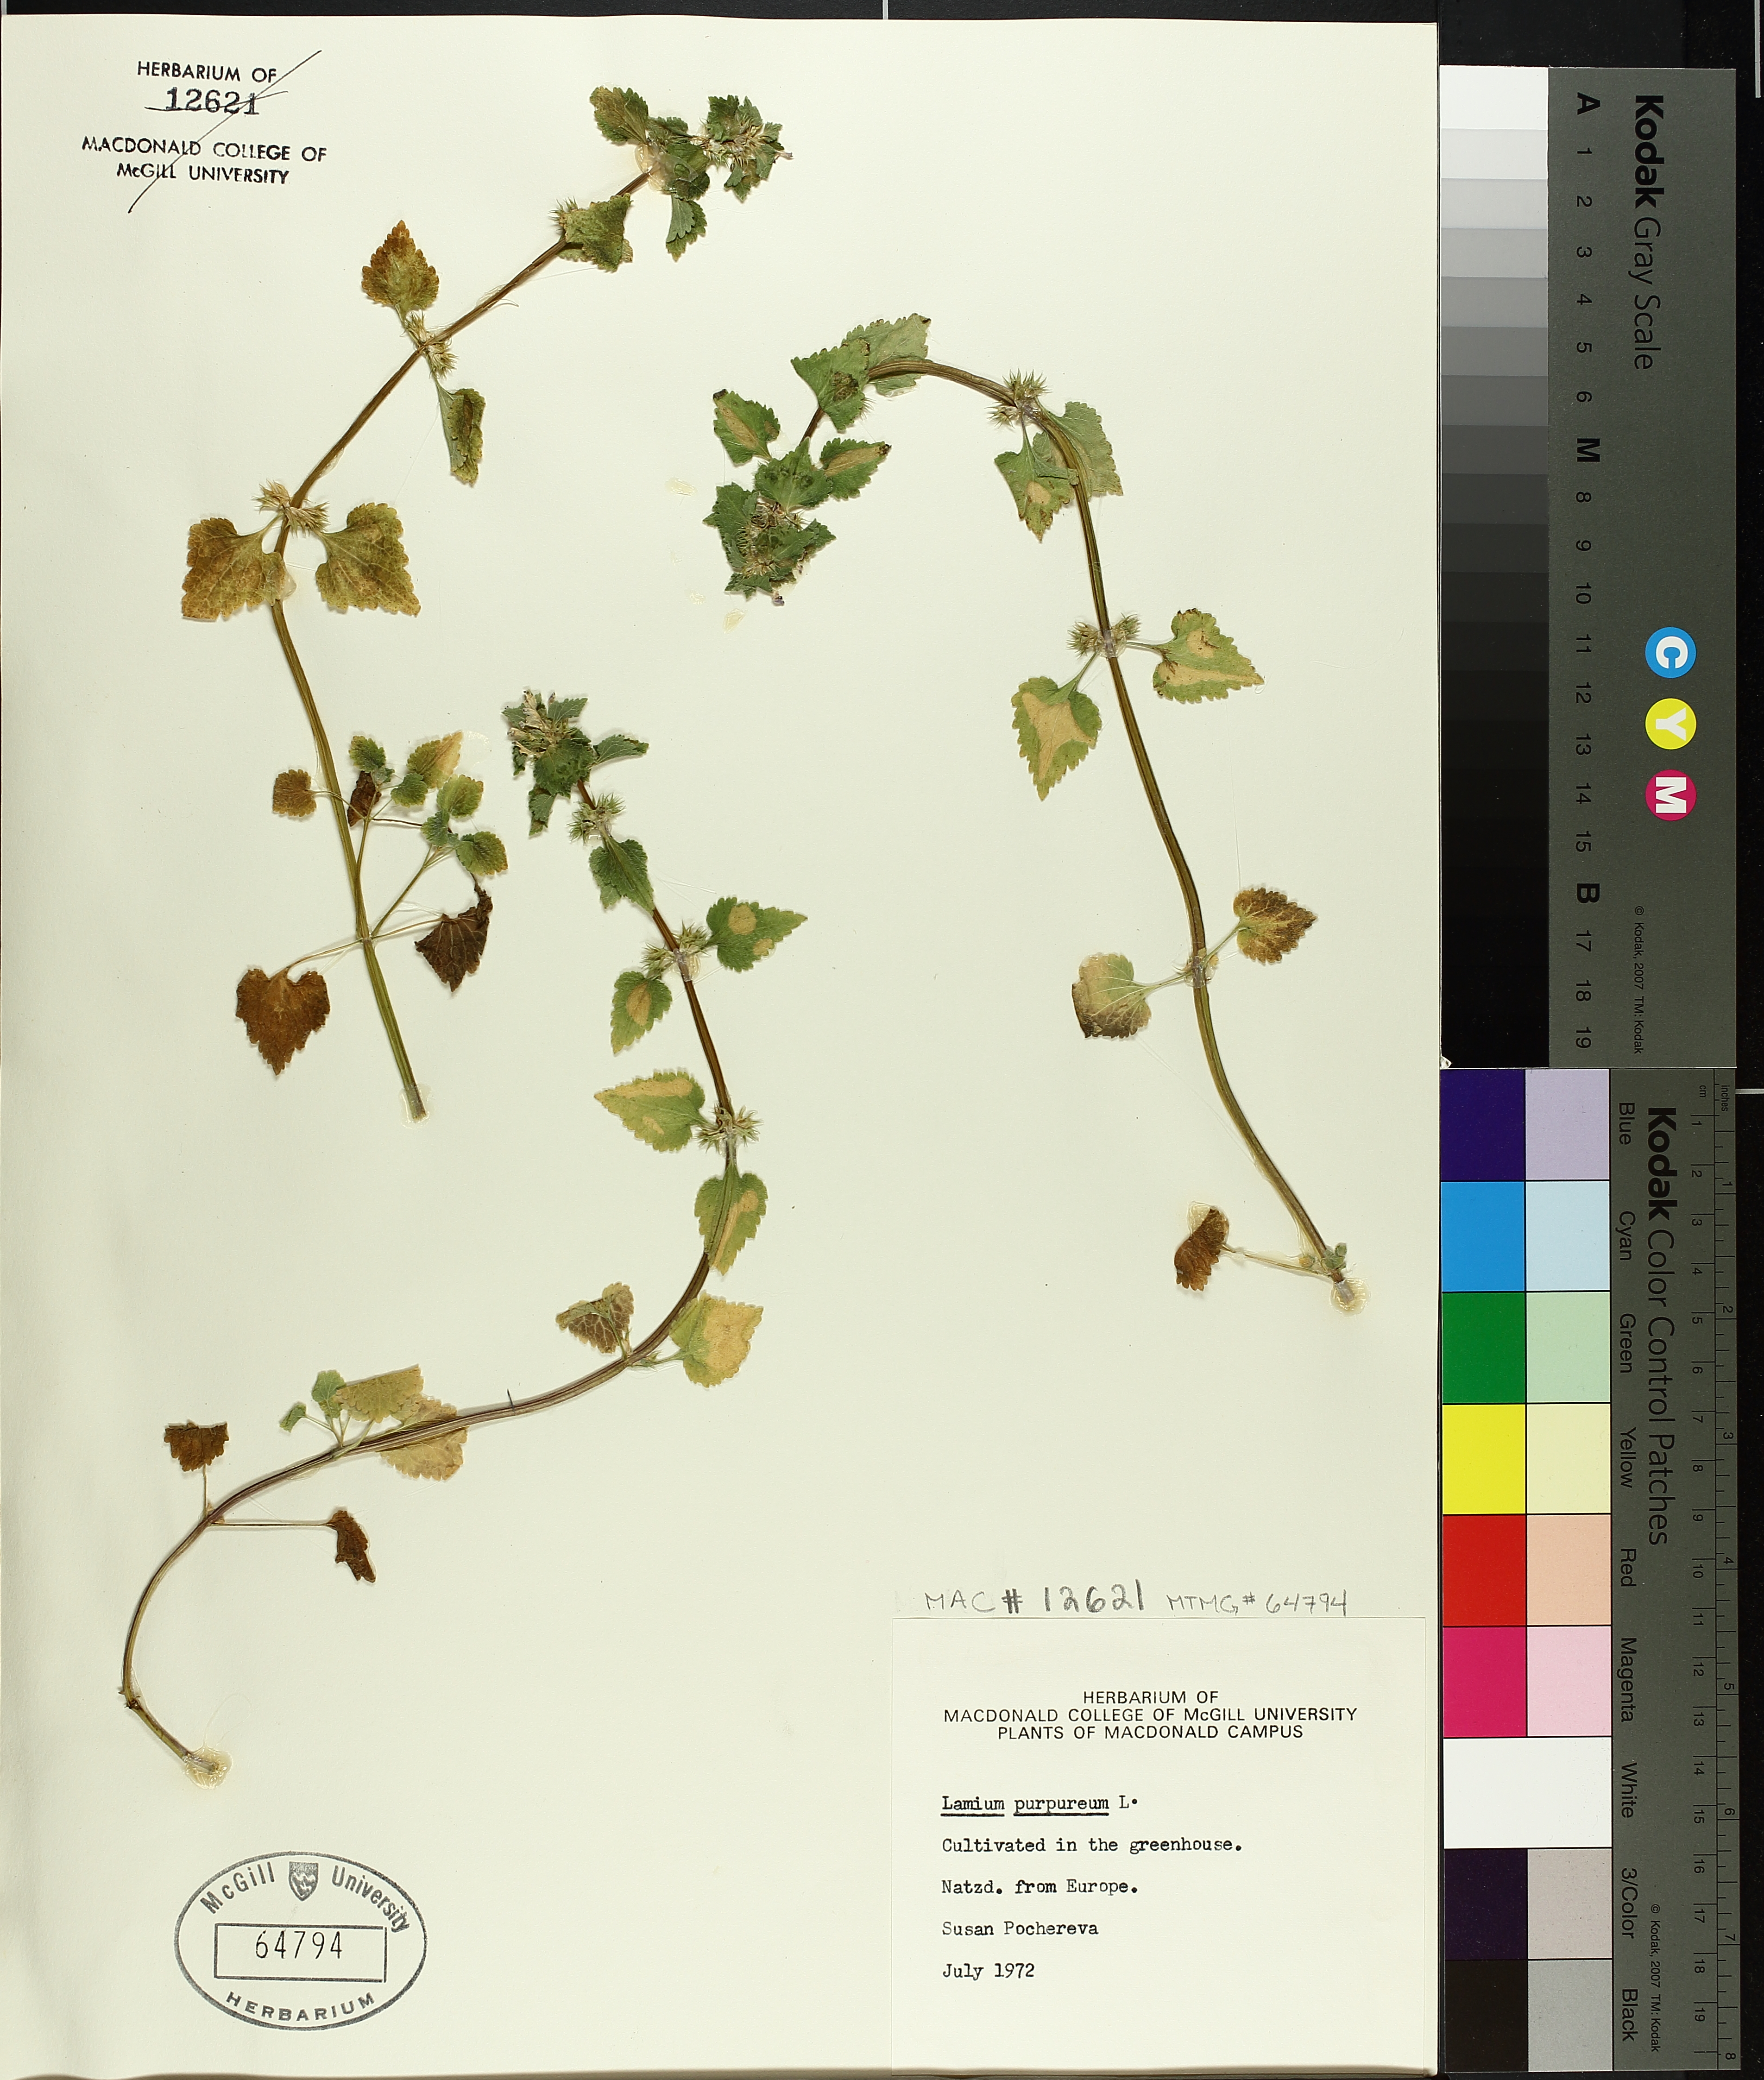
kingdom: Plantae
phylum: Tracheophyta
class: Magnoliopsida
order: Lamiales
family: Lamiaceae
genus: Lamium
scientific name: Lamium purpureum
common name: Red dead-nettle
